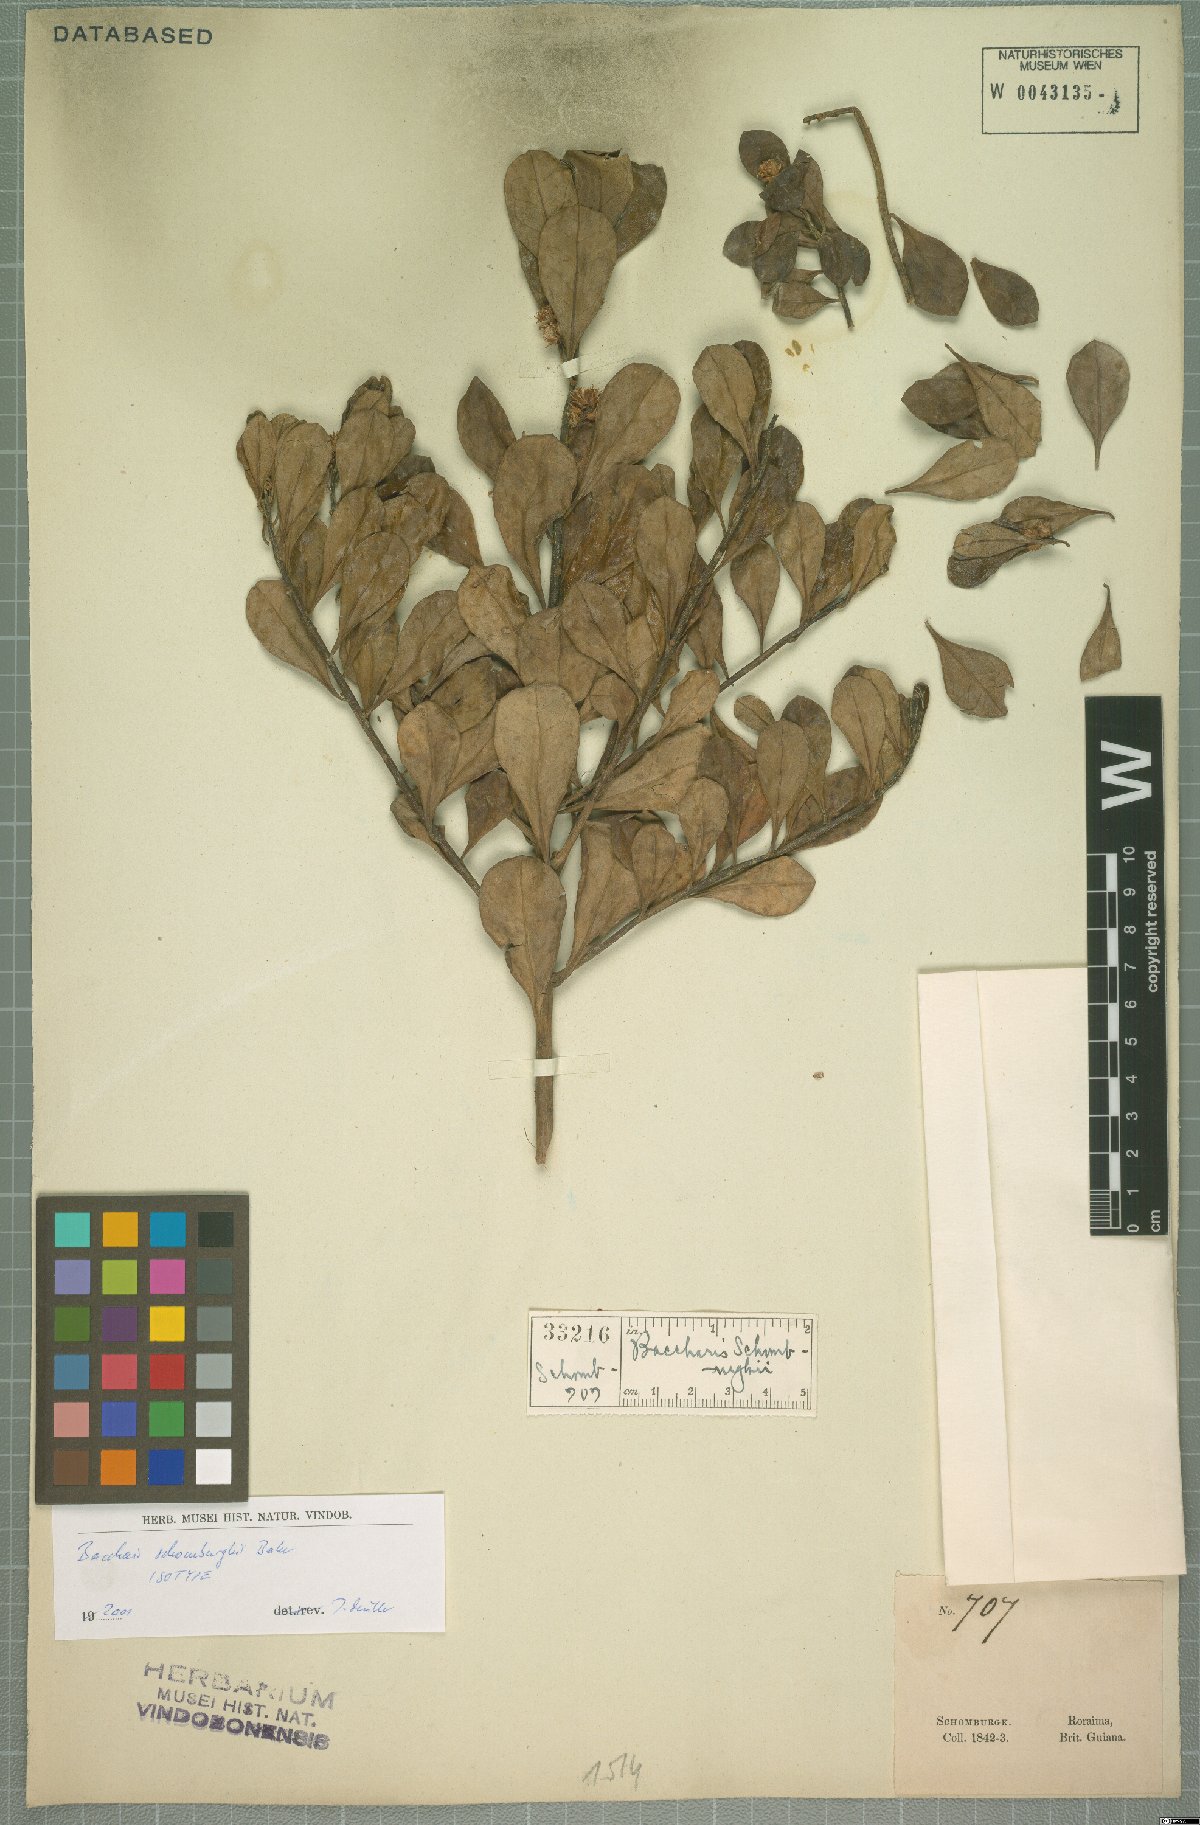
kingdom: Plantae
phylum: Tracheophyta
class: Magnoliopsida
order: Asterales
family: Asteraceae
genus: Baccharis
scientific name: Baccharis schomburgkii
